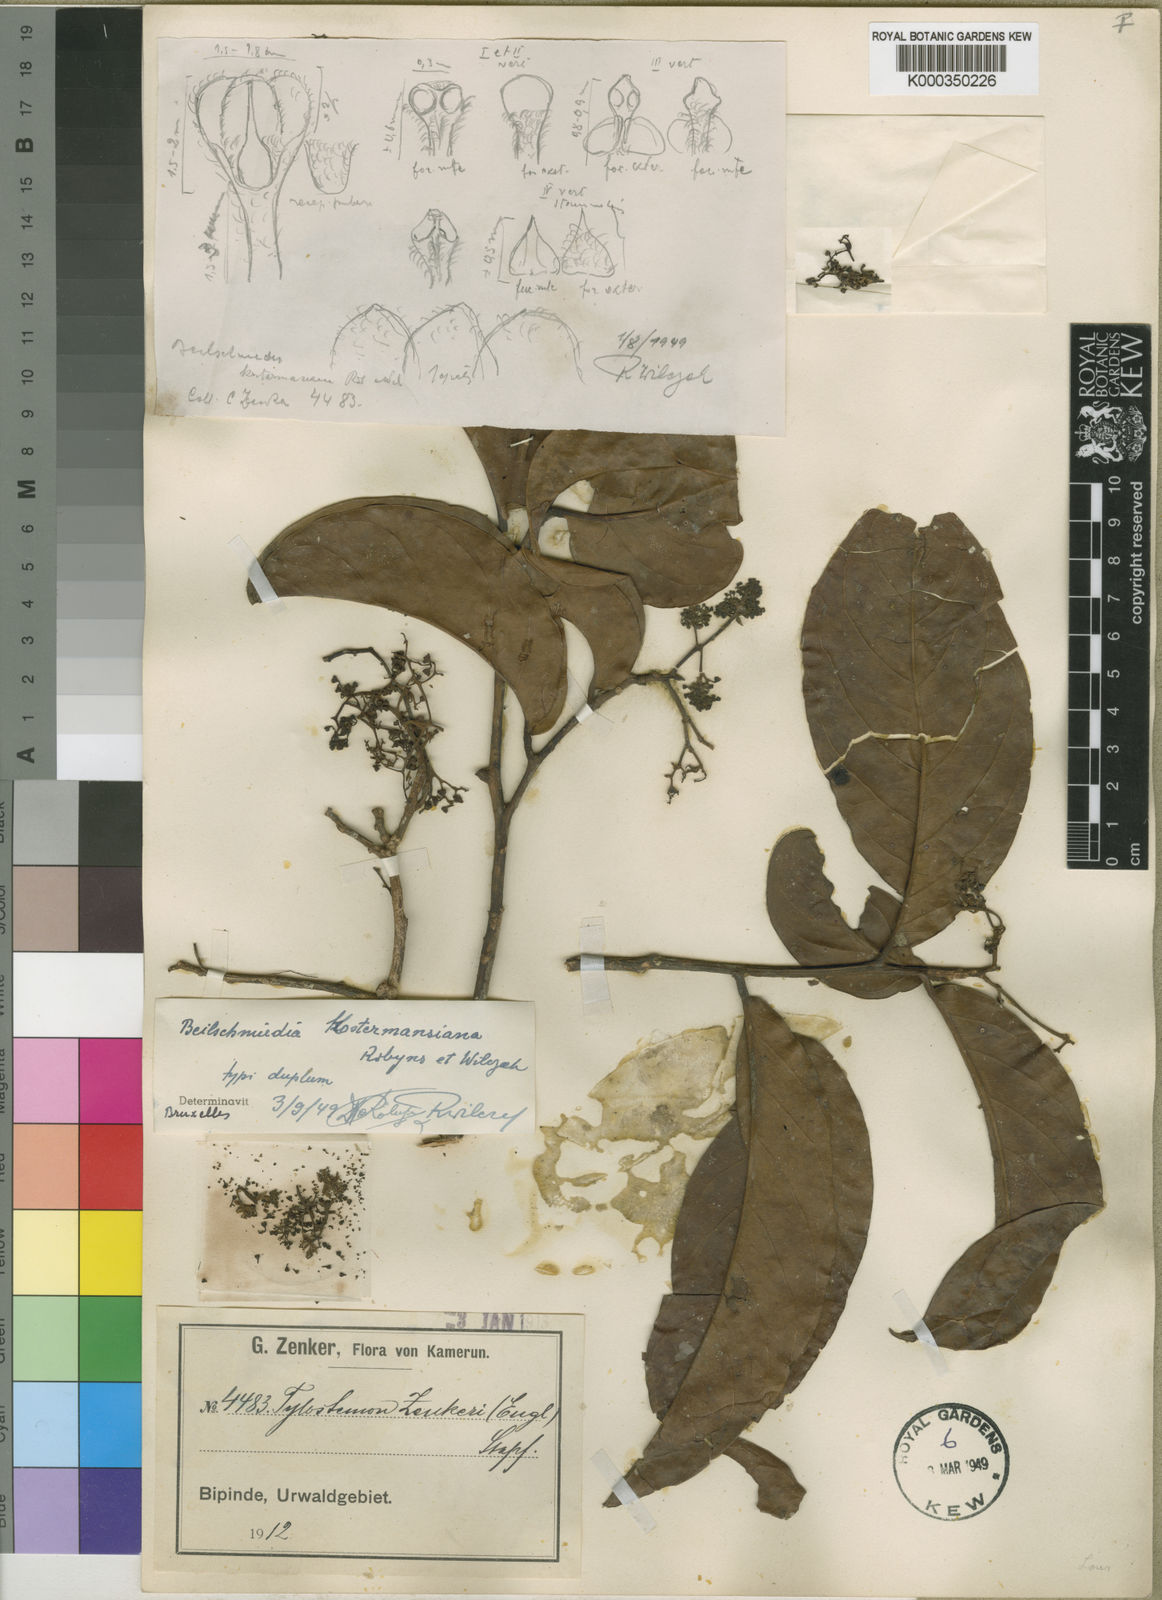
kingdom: Plantae
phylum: Tracheophyta
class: Magnoliopsida
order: Laurales
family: Lauraceae
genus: Beilschmiedia
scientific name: Beilschmiedia kostermansiana
